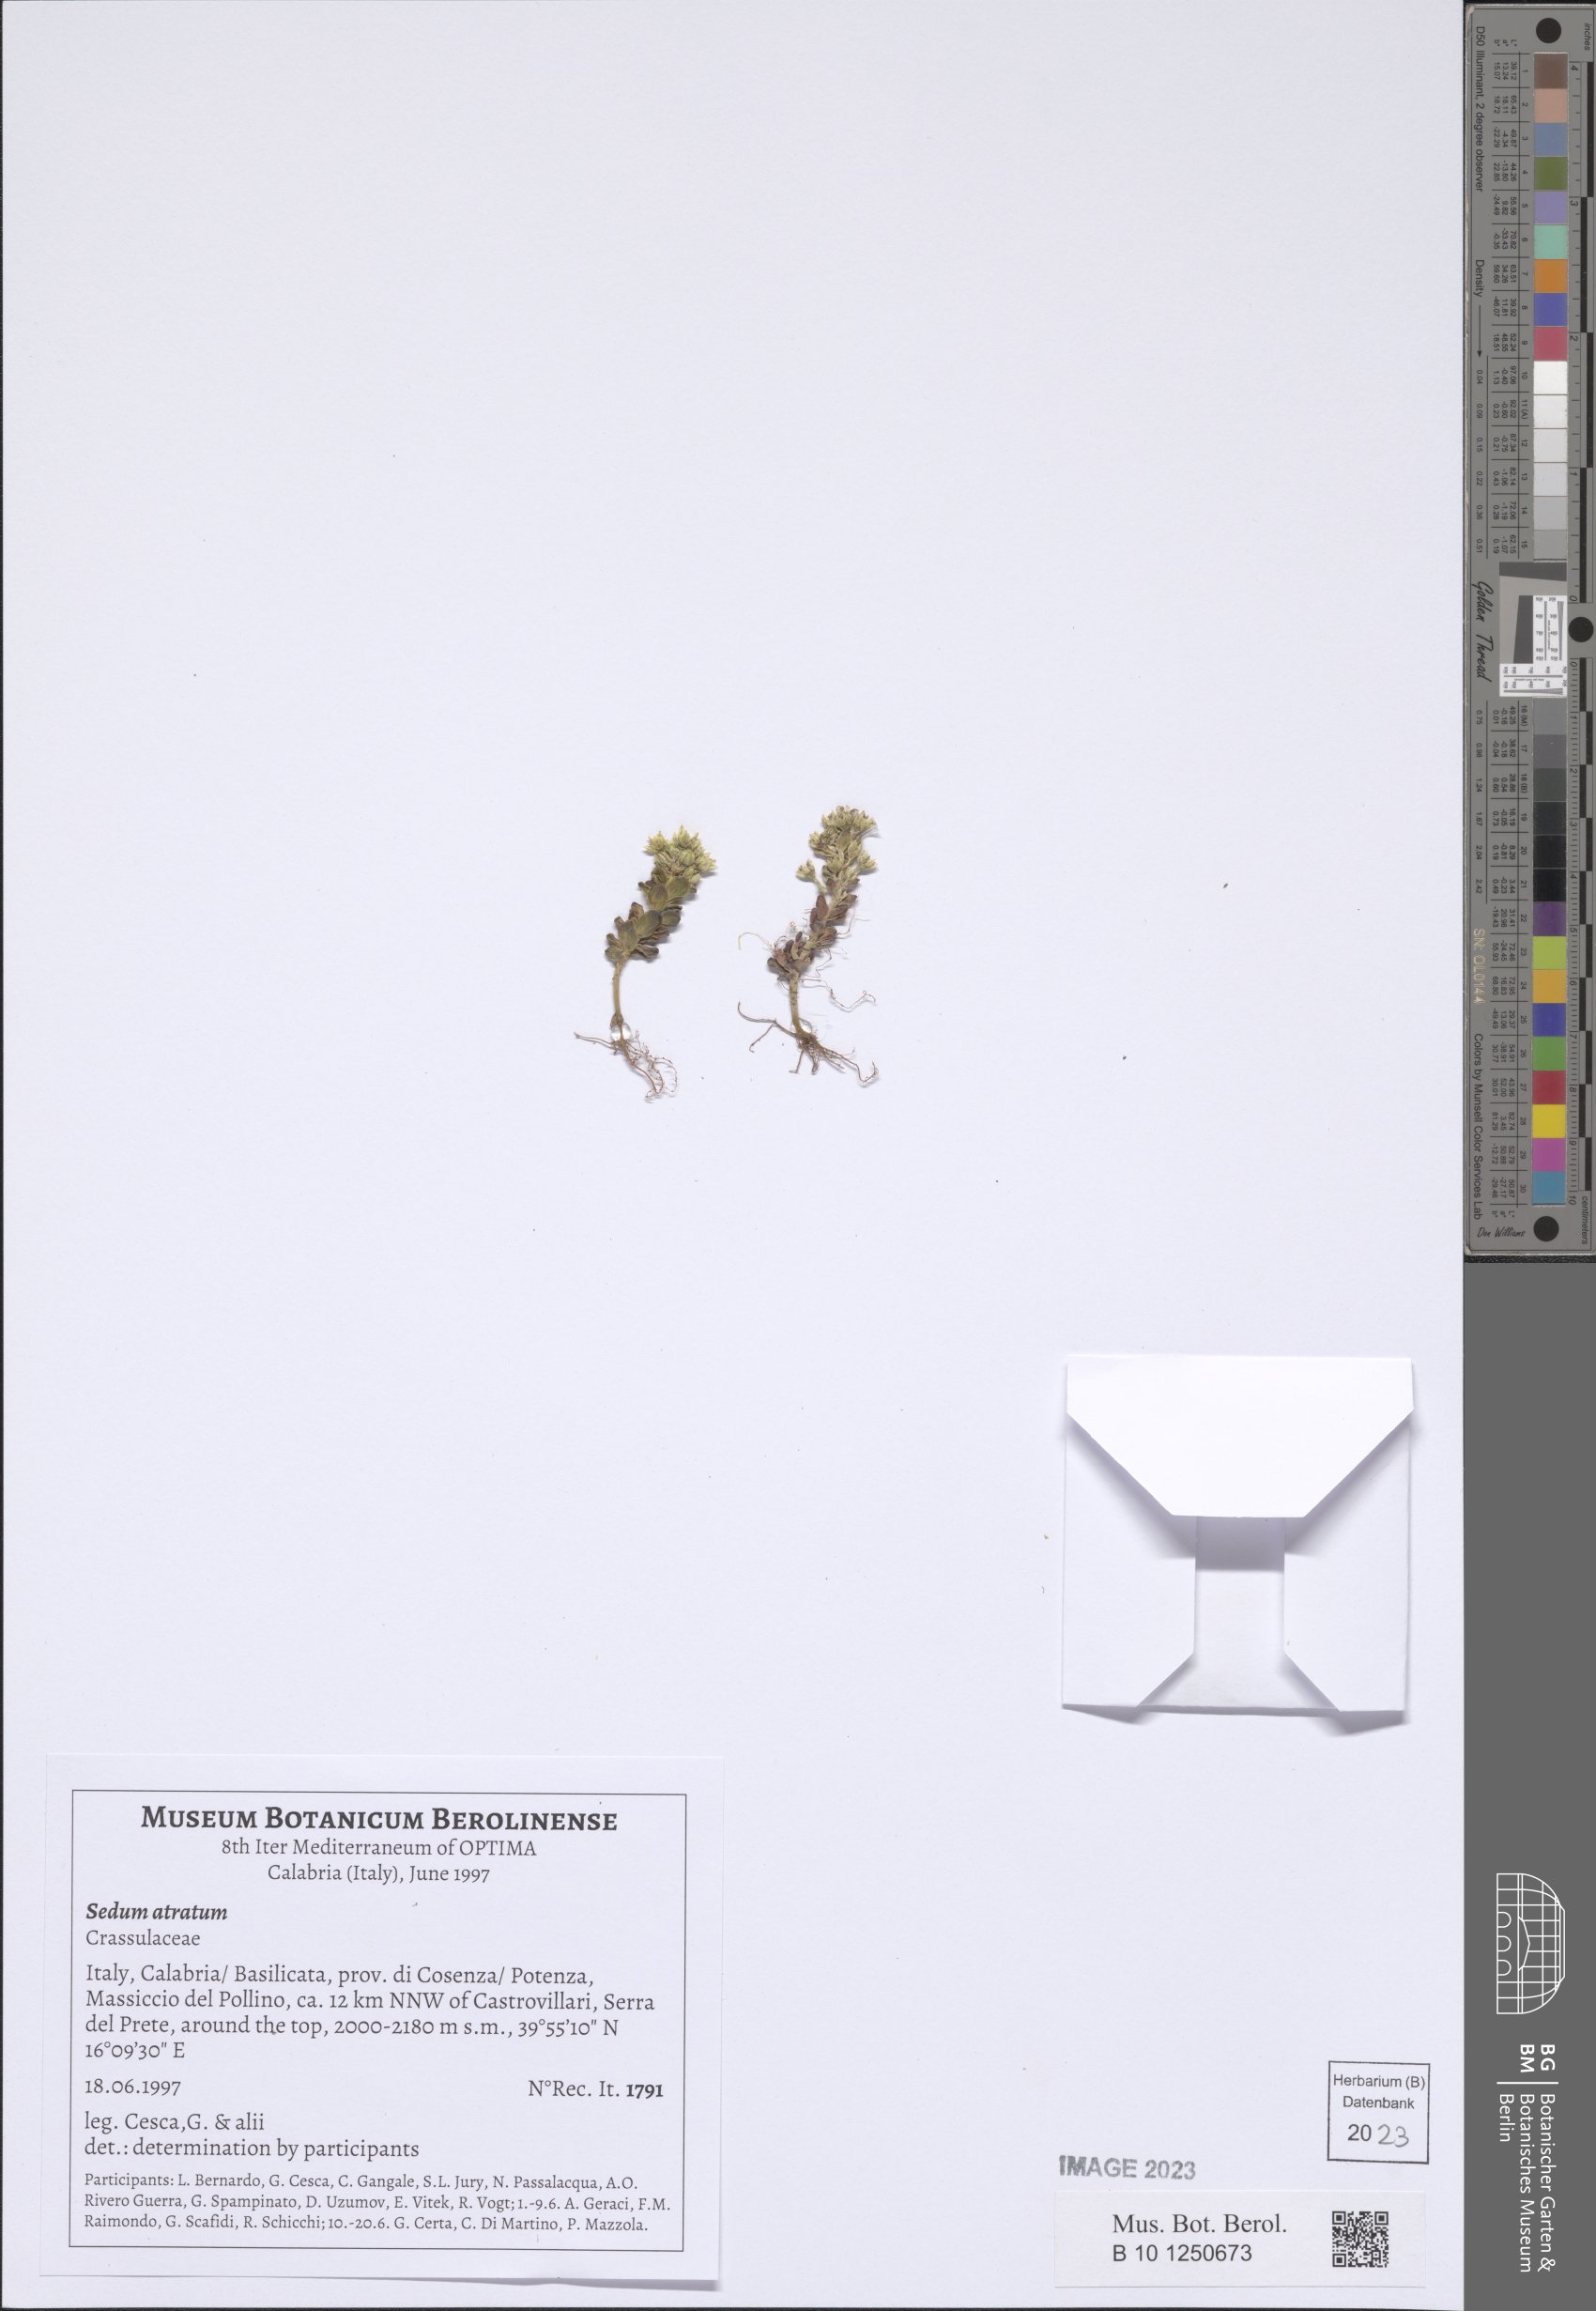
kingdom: Plantae
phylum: Tracheophyta
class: Magnoliopsida
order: Saxifragales
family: Crassulaceae
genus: Sedum
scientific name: Sedum atratum
